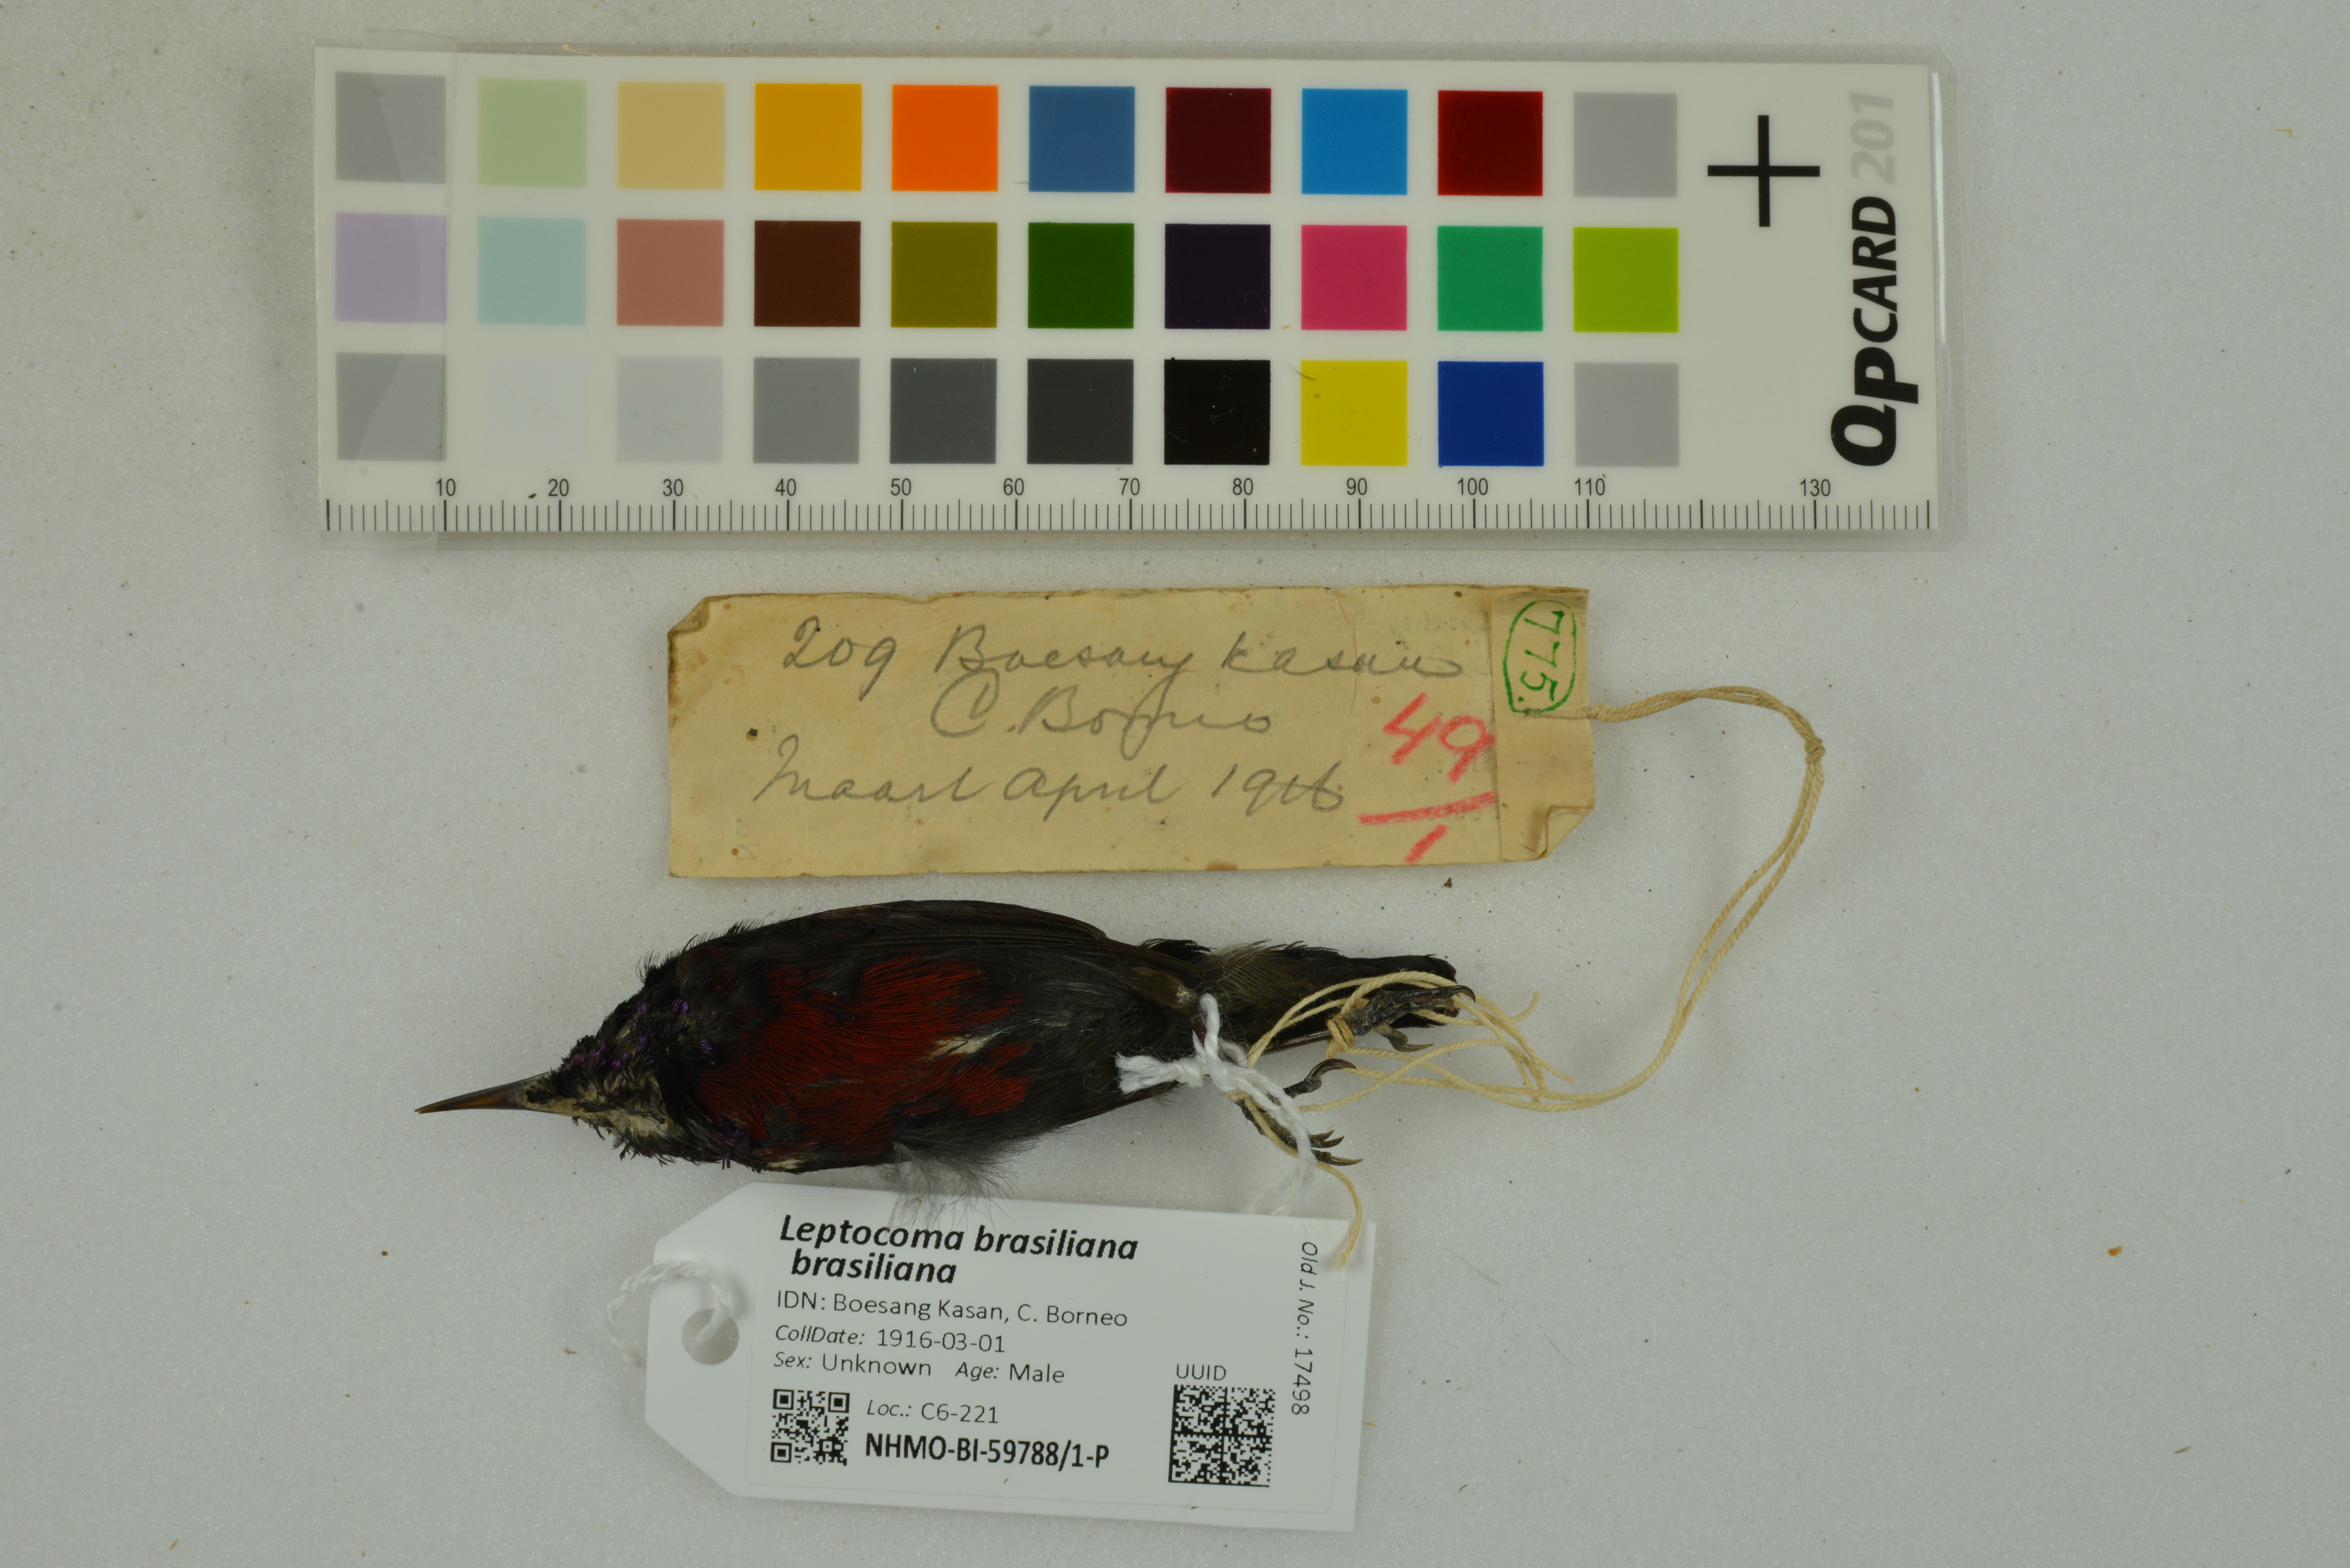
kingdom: Animalia
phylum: Chordata
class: Aves
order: Passeriformes
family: Nectariniidae
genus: Leptocoma
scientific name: Leptocoma brasiliana
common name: Van hasselt's sunbird
